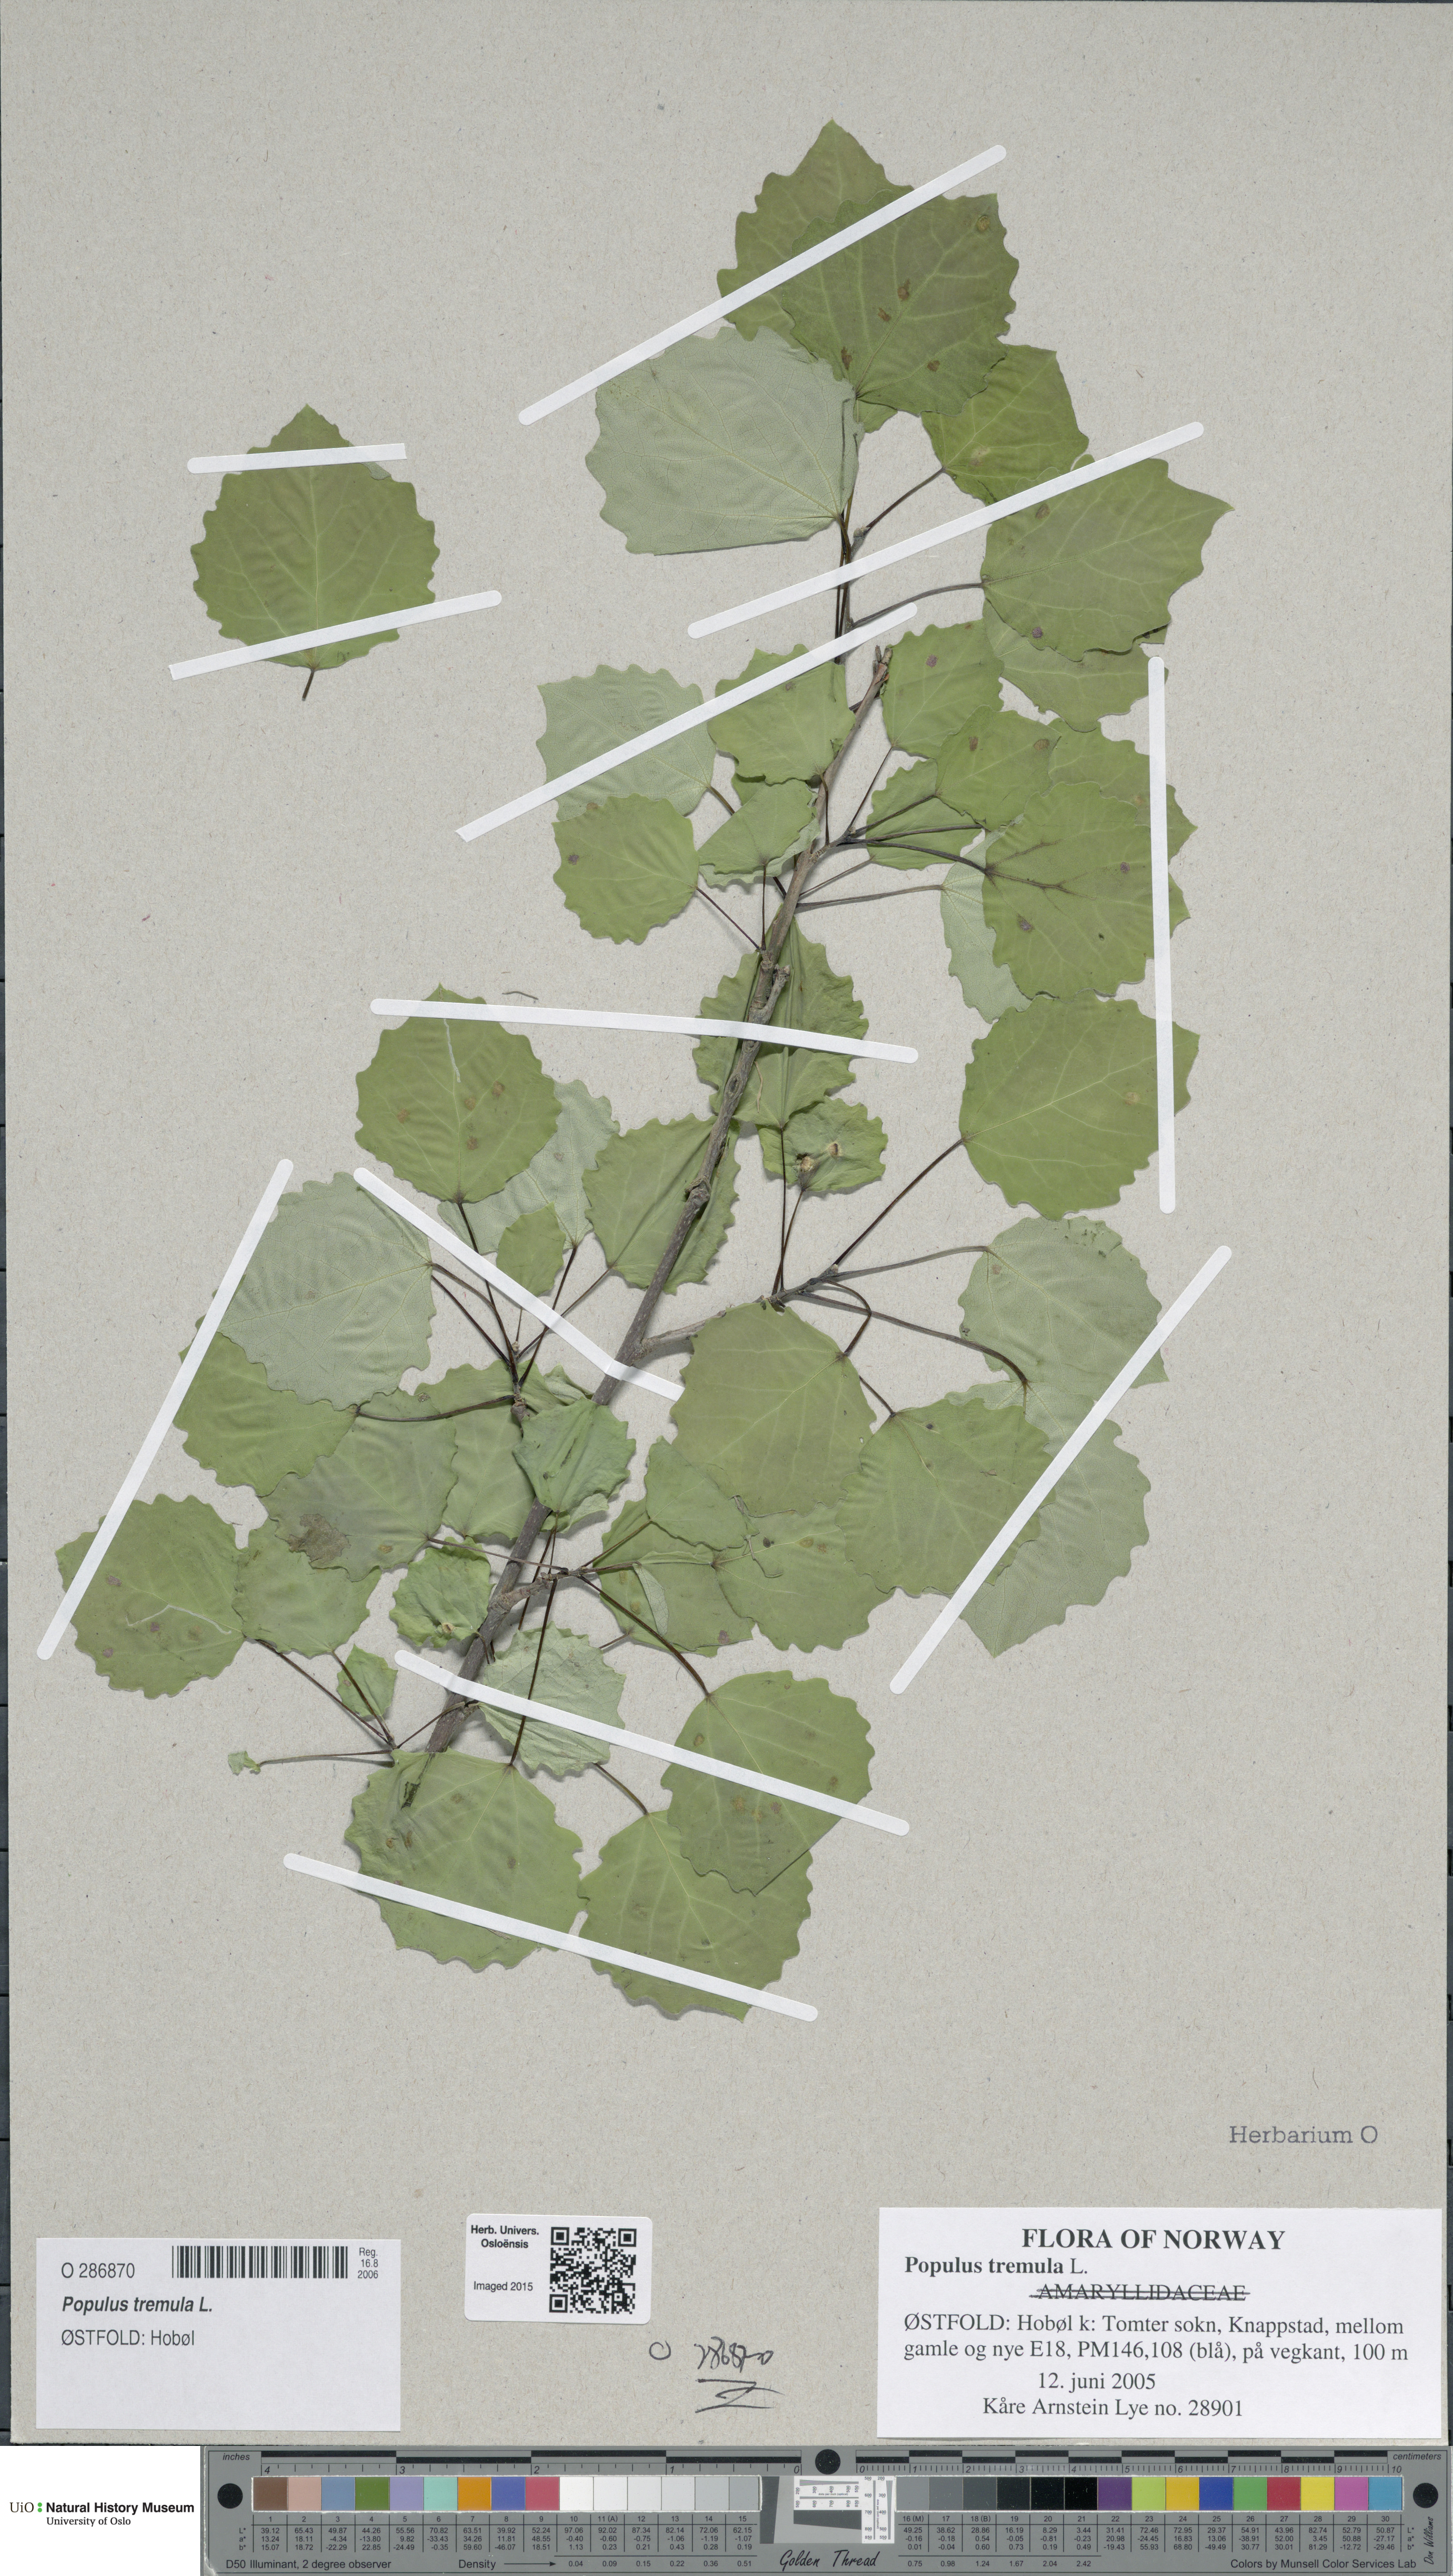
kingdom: Plantae
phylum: Tracheophyta
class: Magnoliopsida
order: Malpighiales
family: Salicaceae
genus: Populus
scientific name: Populus tremula
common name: European aspen
